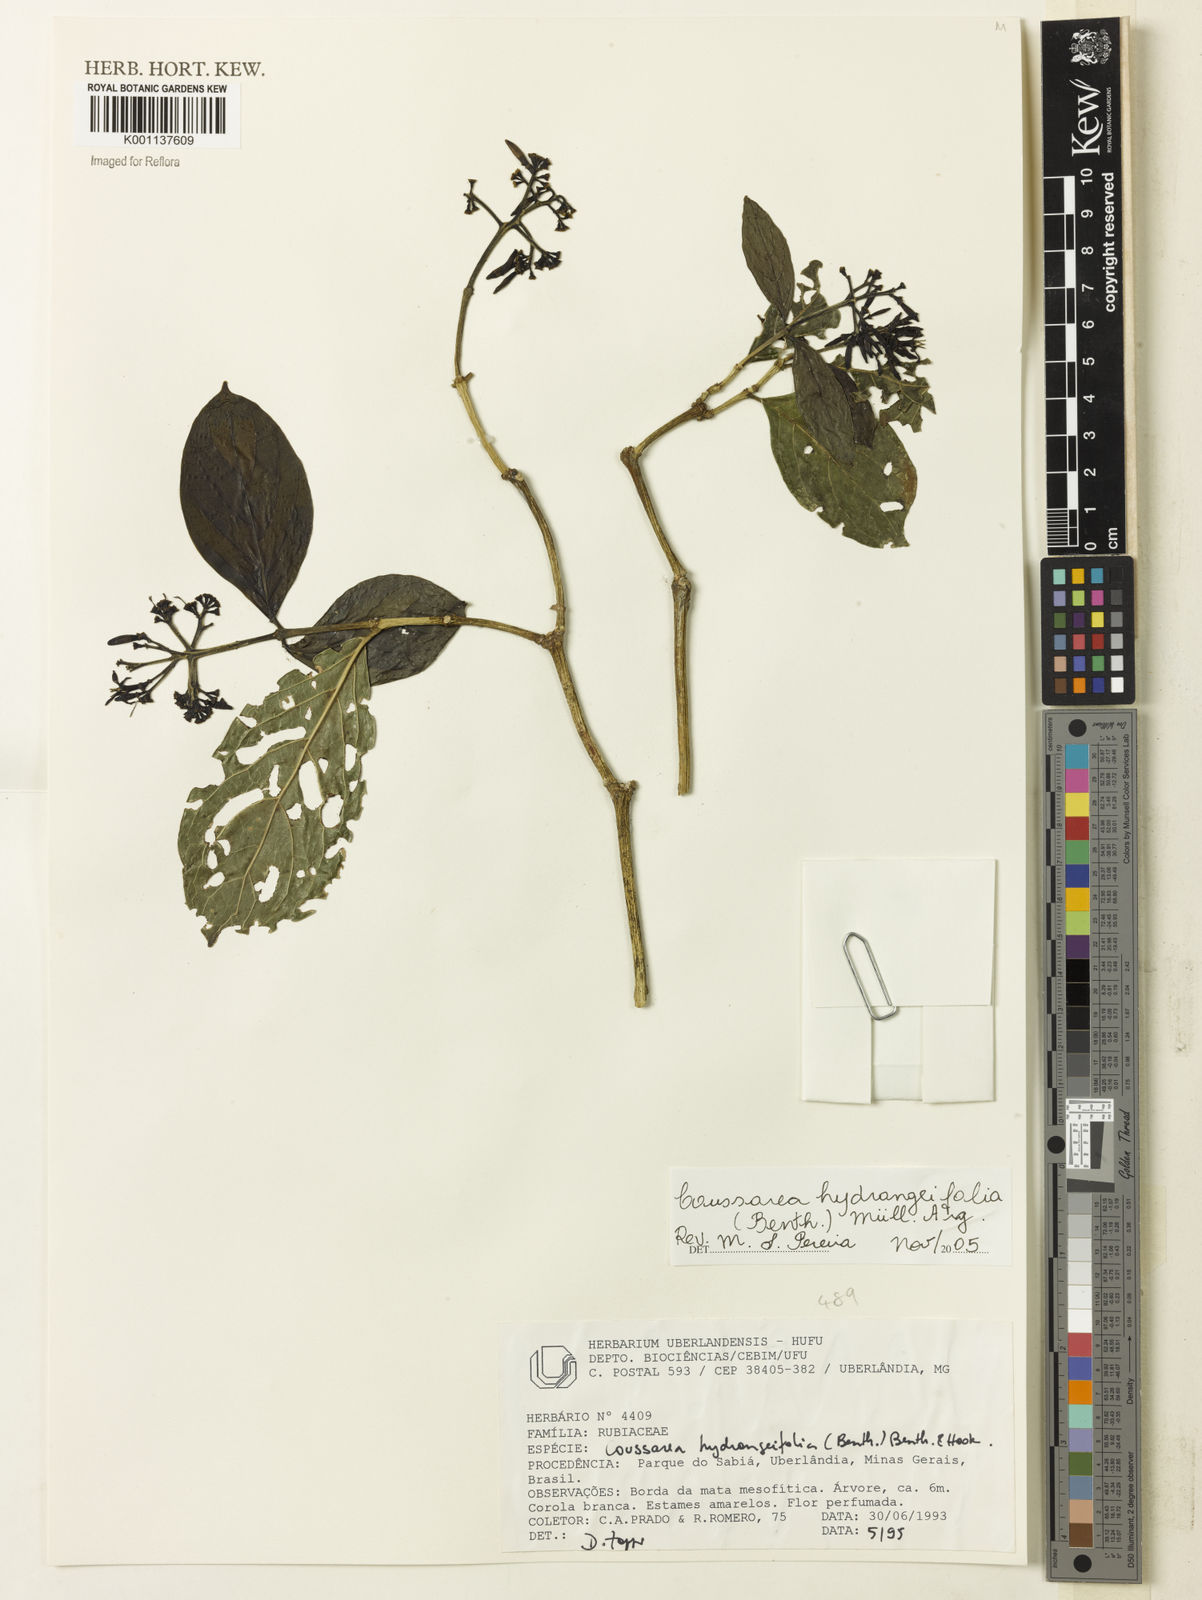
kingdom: Plantae
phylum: Tracheophyta
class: Magnoliopsida
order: Gentianales
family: Rubiaceae
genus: Coussarea
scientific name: Coussarea
